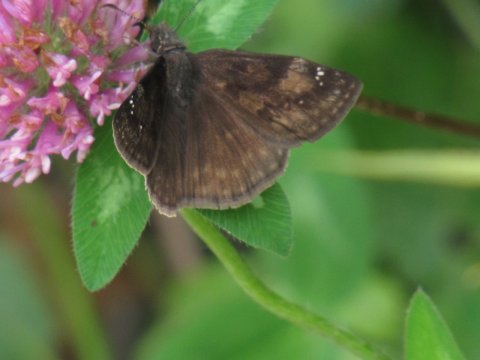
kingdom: Animalia
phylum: Arthropoda
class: Insecta
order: Lepidoptera
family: Hesperiidae
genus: Gesta
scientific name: Gesta
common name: Wild Indigo Duskywing
